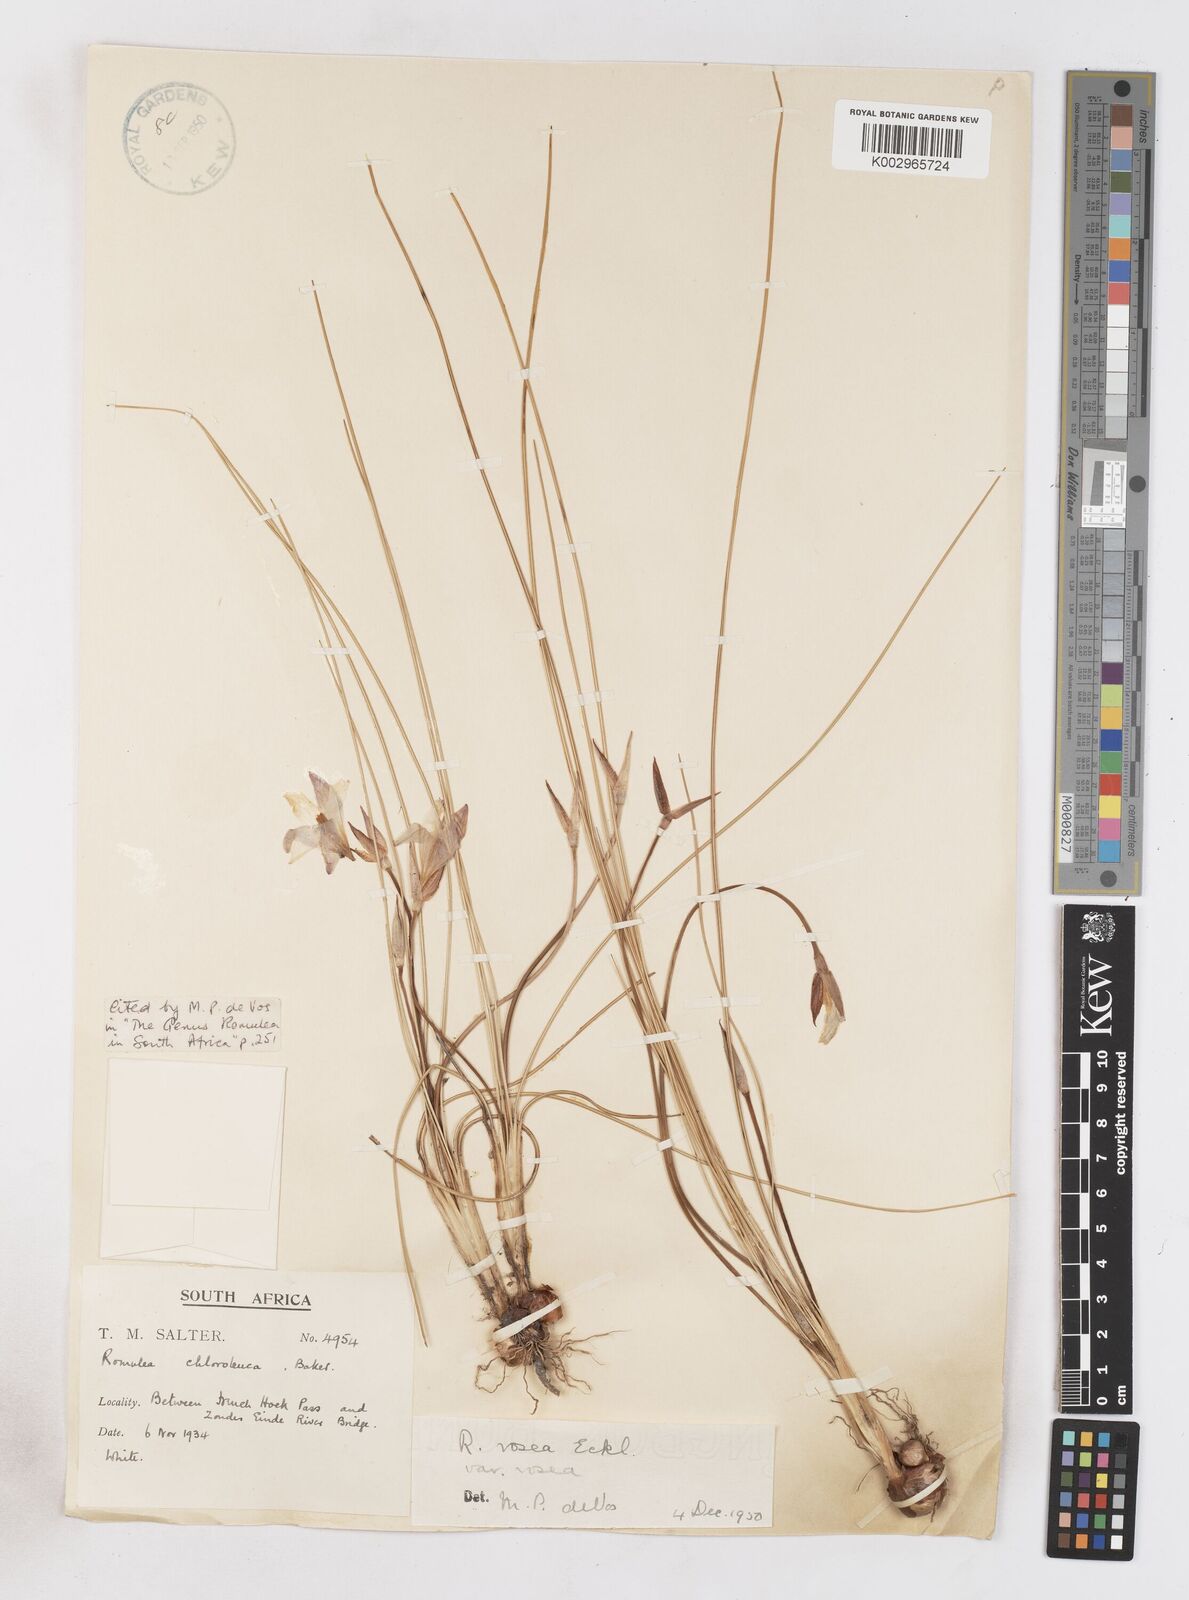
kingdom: Plantae
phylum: Tracheophyta
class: Liliopsida
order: Asparagales
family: Iridaceae
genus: Romulea
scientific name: Romulea rosea
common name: Oniongrass
